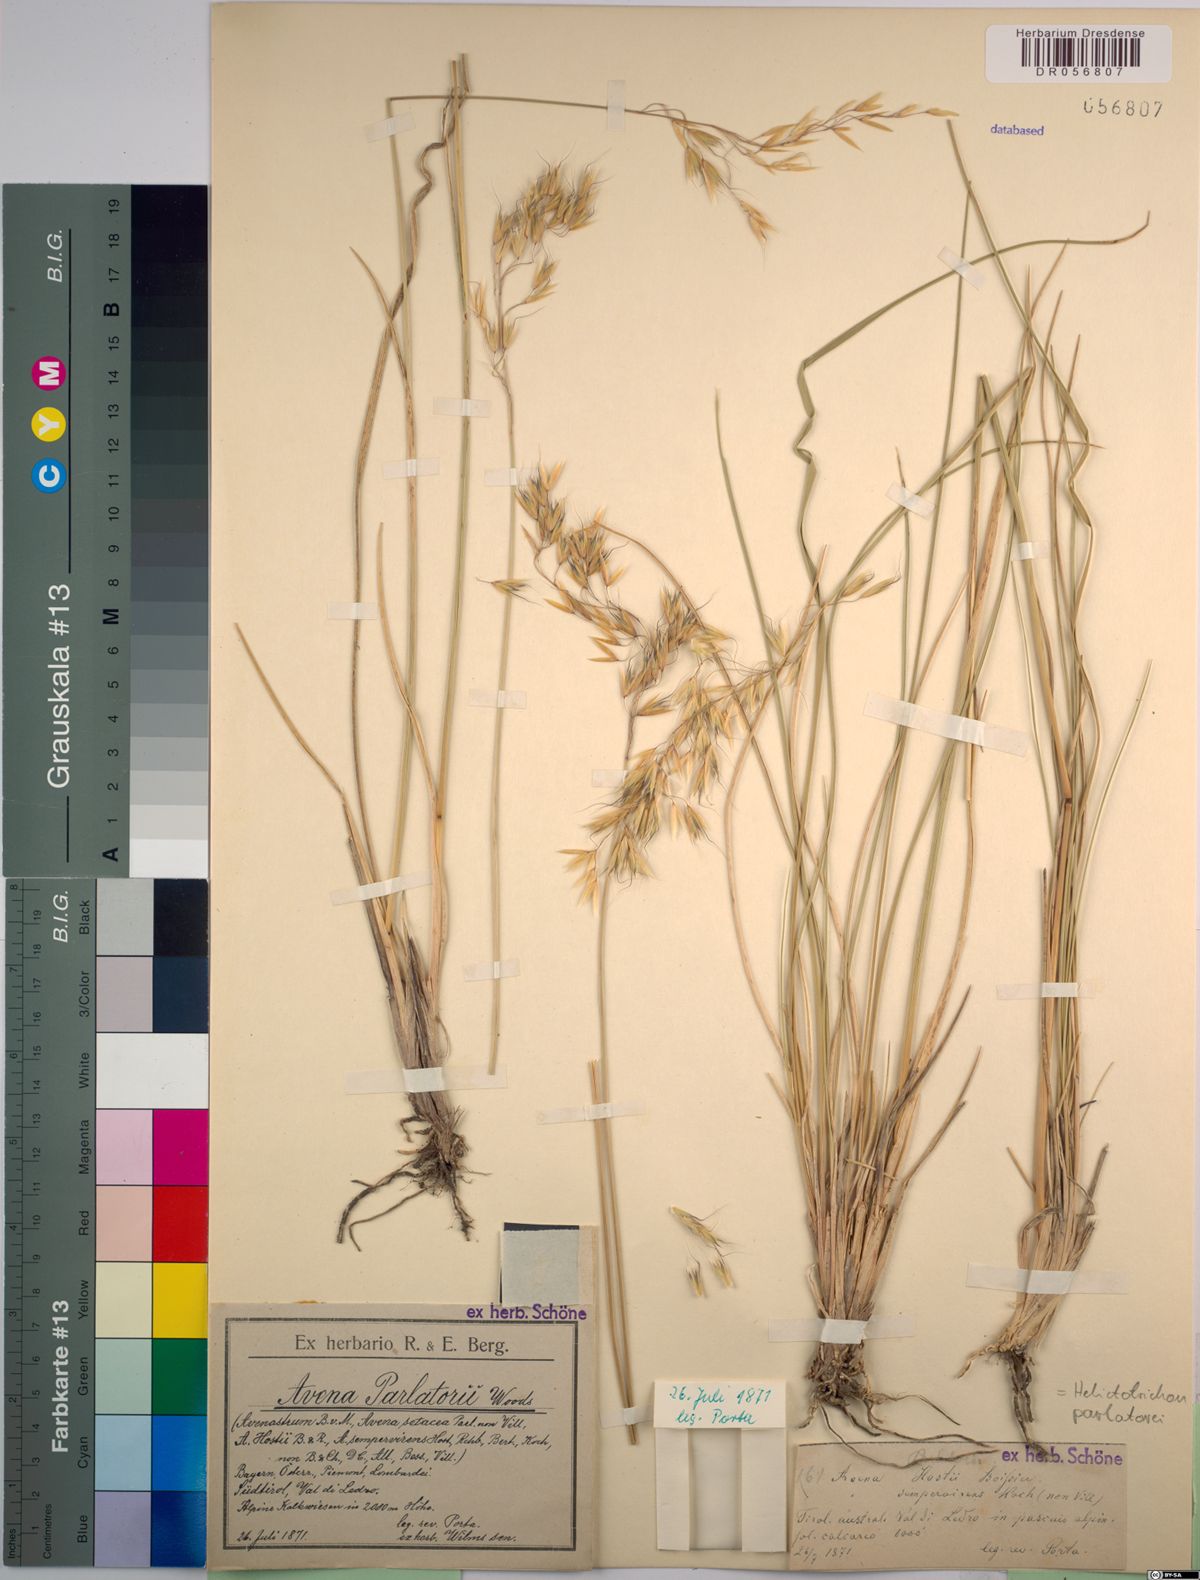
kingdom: Plantae
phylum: Tracheophyta
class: Liliopsida
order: Poales
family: Poaceae
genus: Helictotrichon
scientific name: Helictotrichon parlatorei
